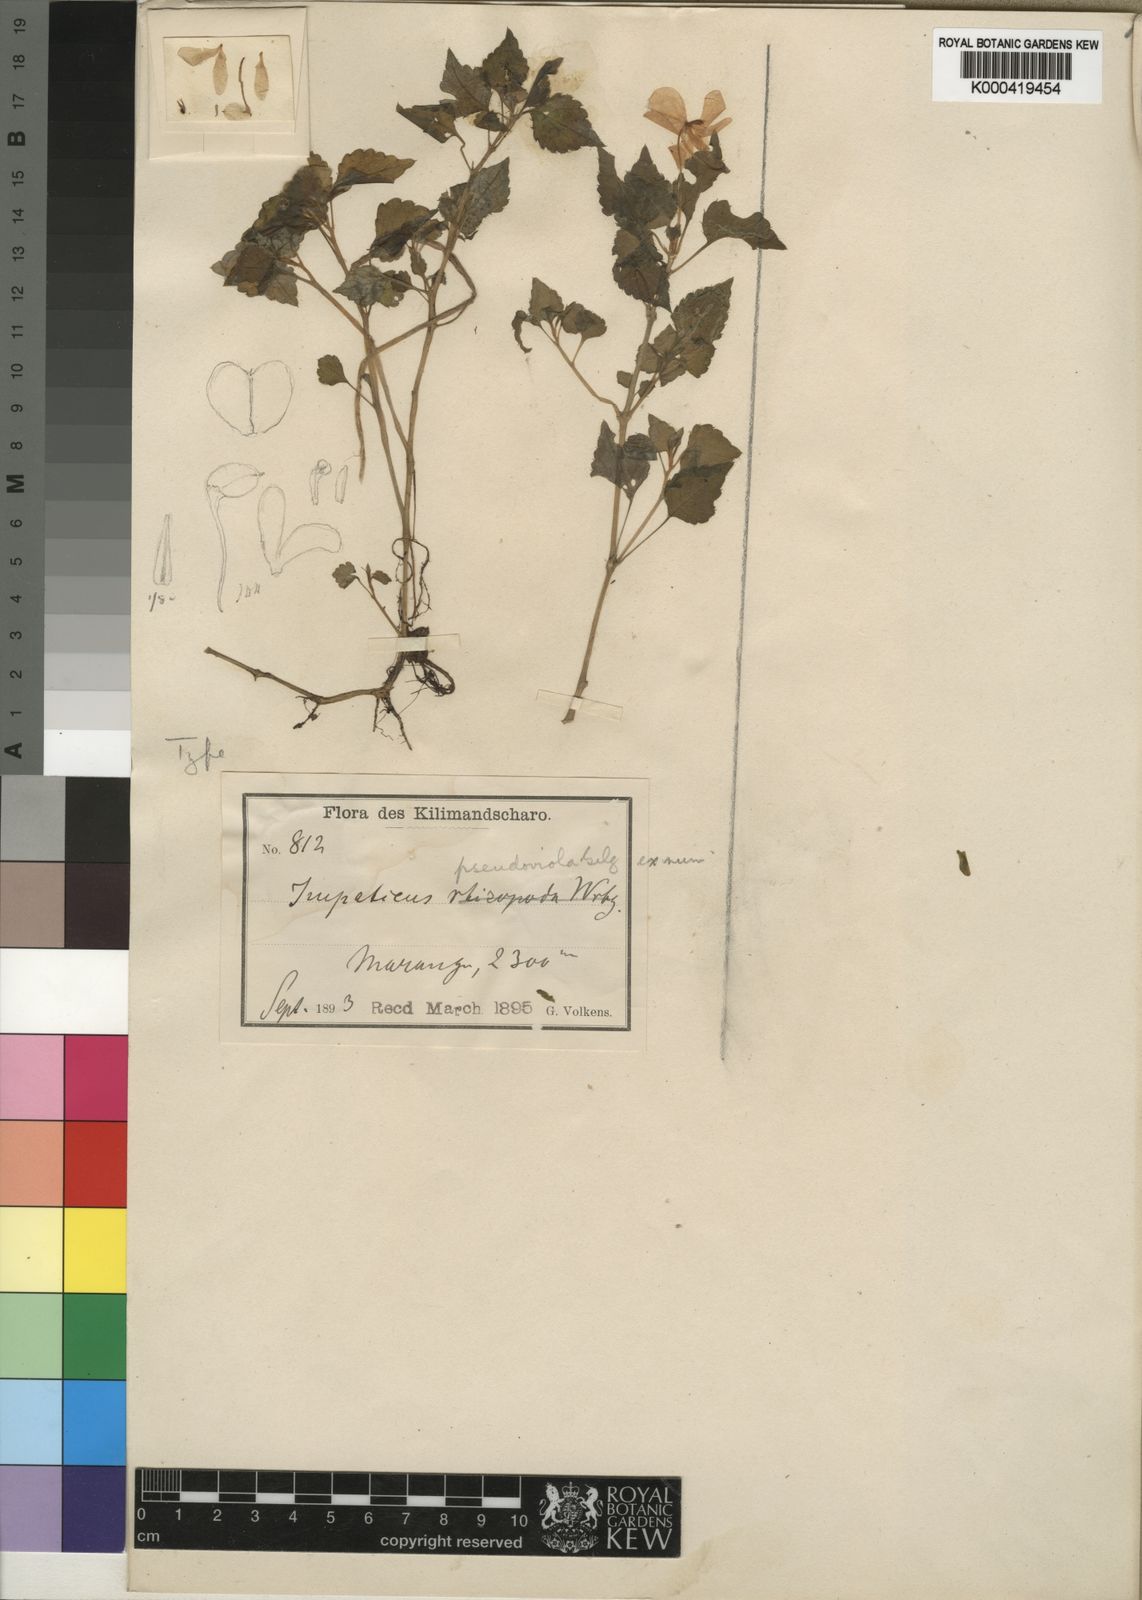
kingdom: Plantae
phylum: Tracheophyta
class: Magnoliopsida
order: Ericales
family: Balsaminaceae
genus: Impatiens
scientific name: Impatiens pseudoviola
